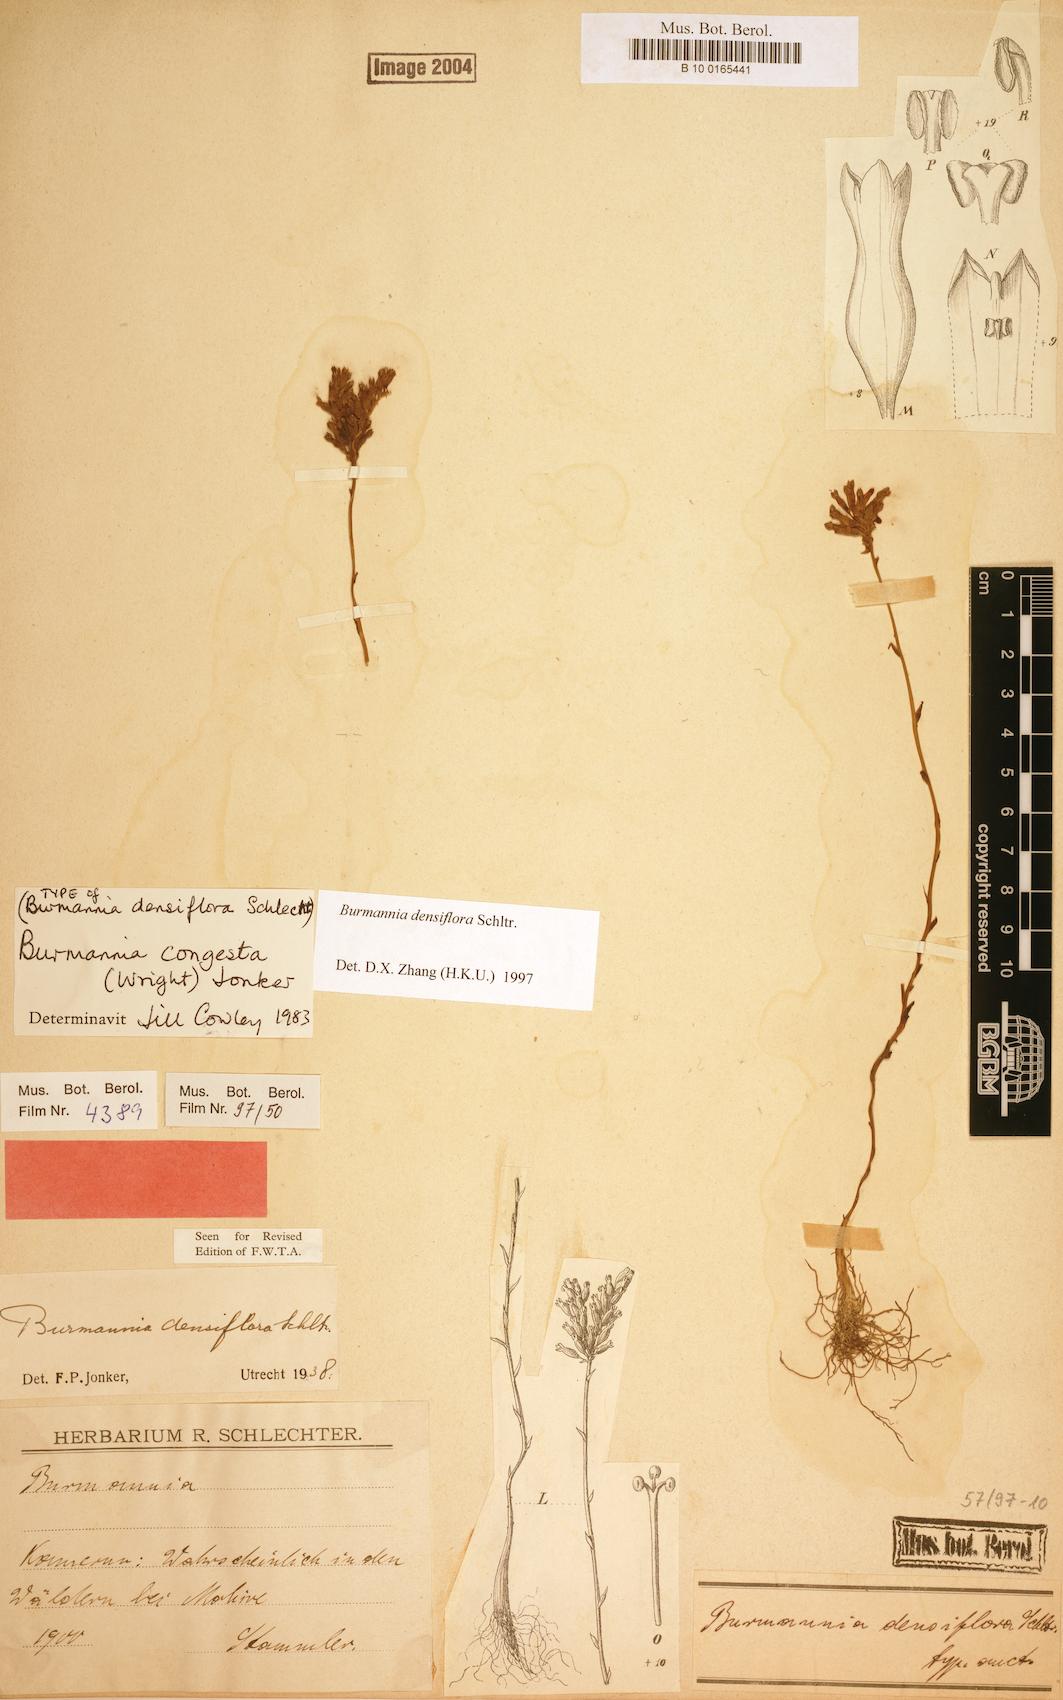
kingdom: Plantae
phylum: Tracheophyta
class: Liliopsida
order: Dioscoreales
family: Burmanniaceae
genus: Campylosiphon
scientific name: Campylosiphon congestus
